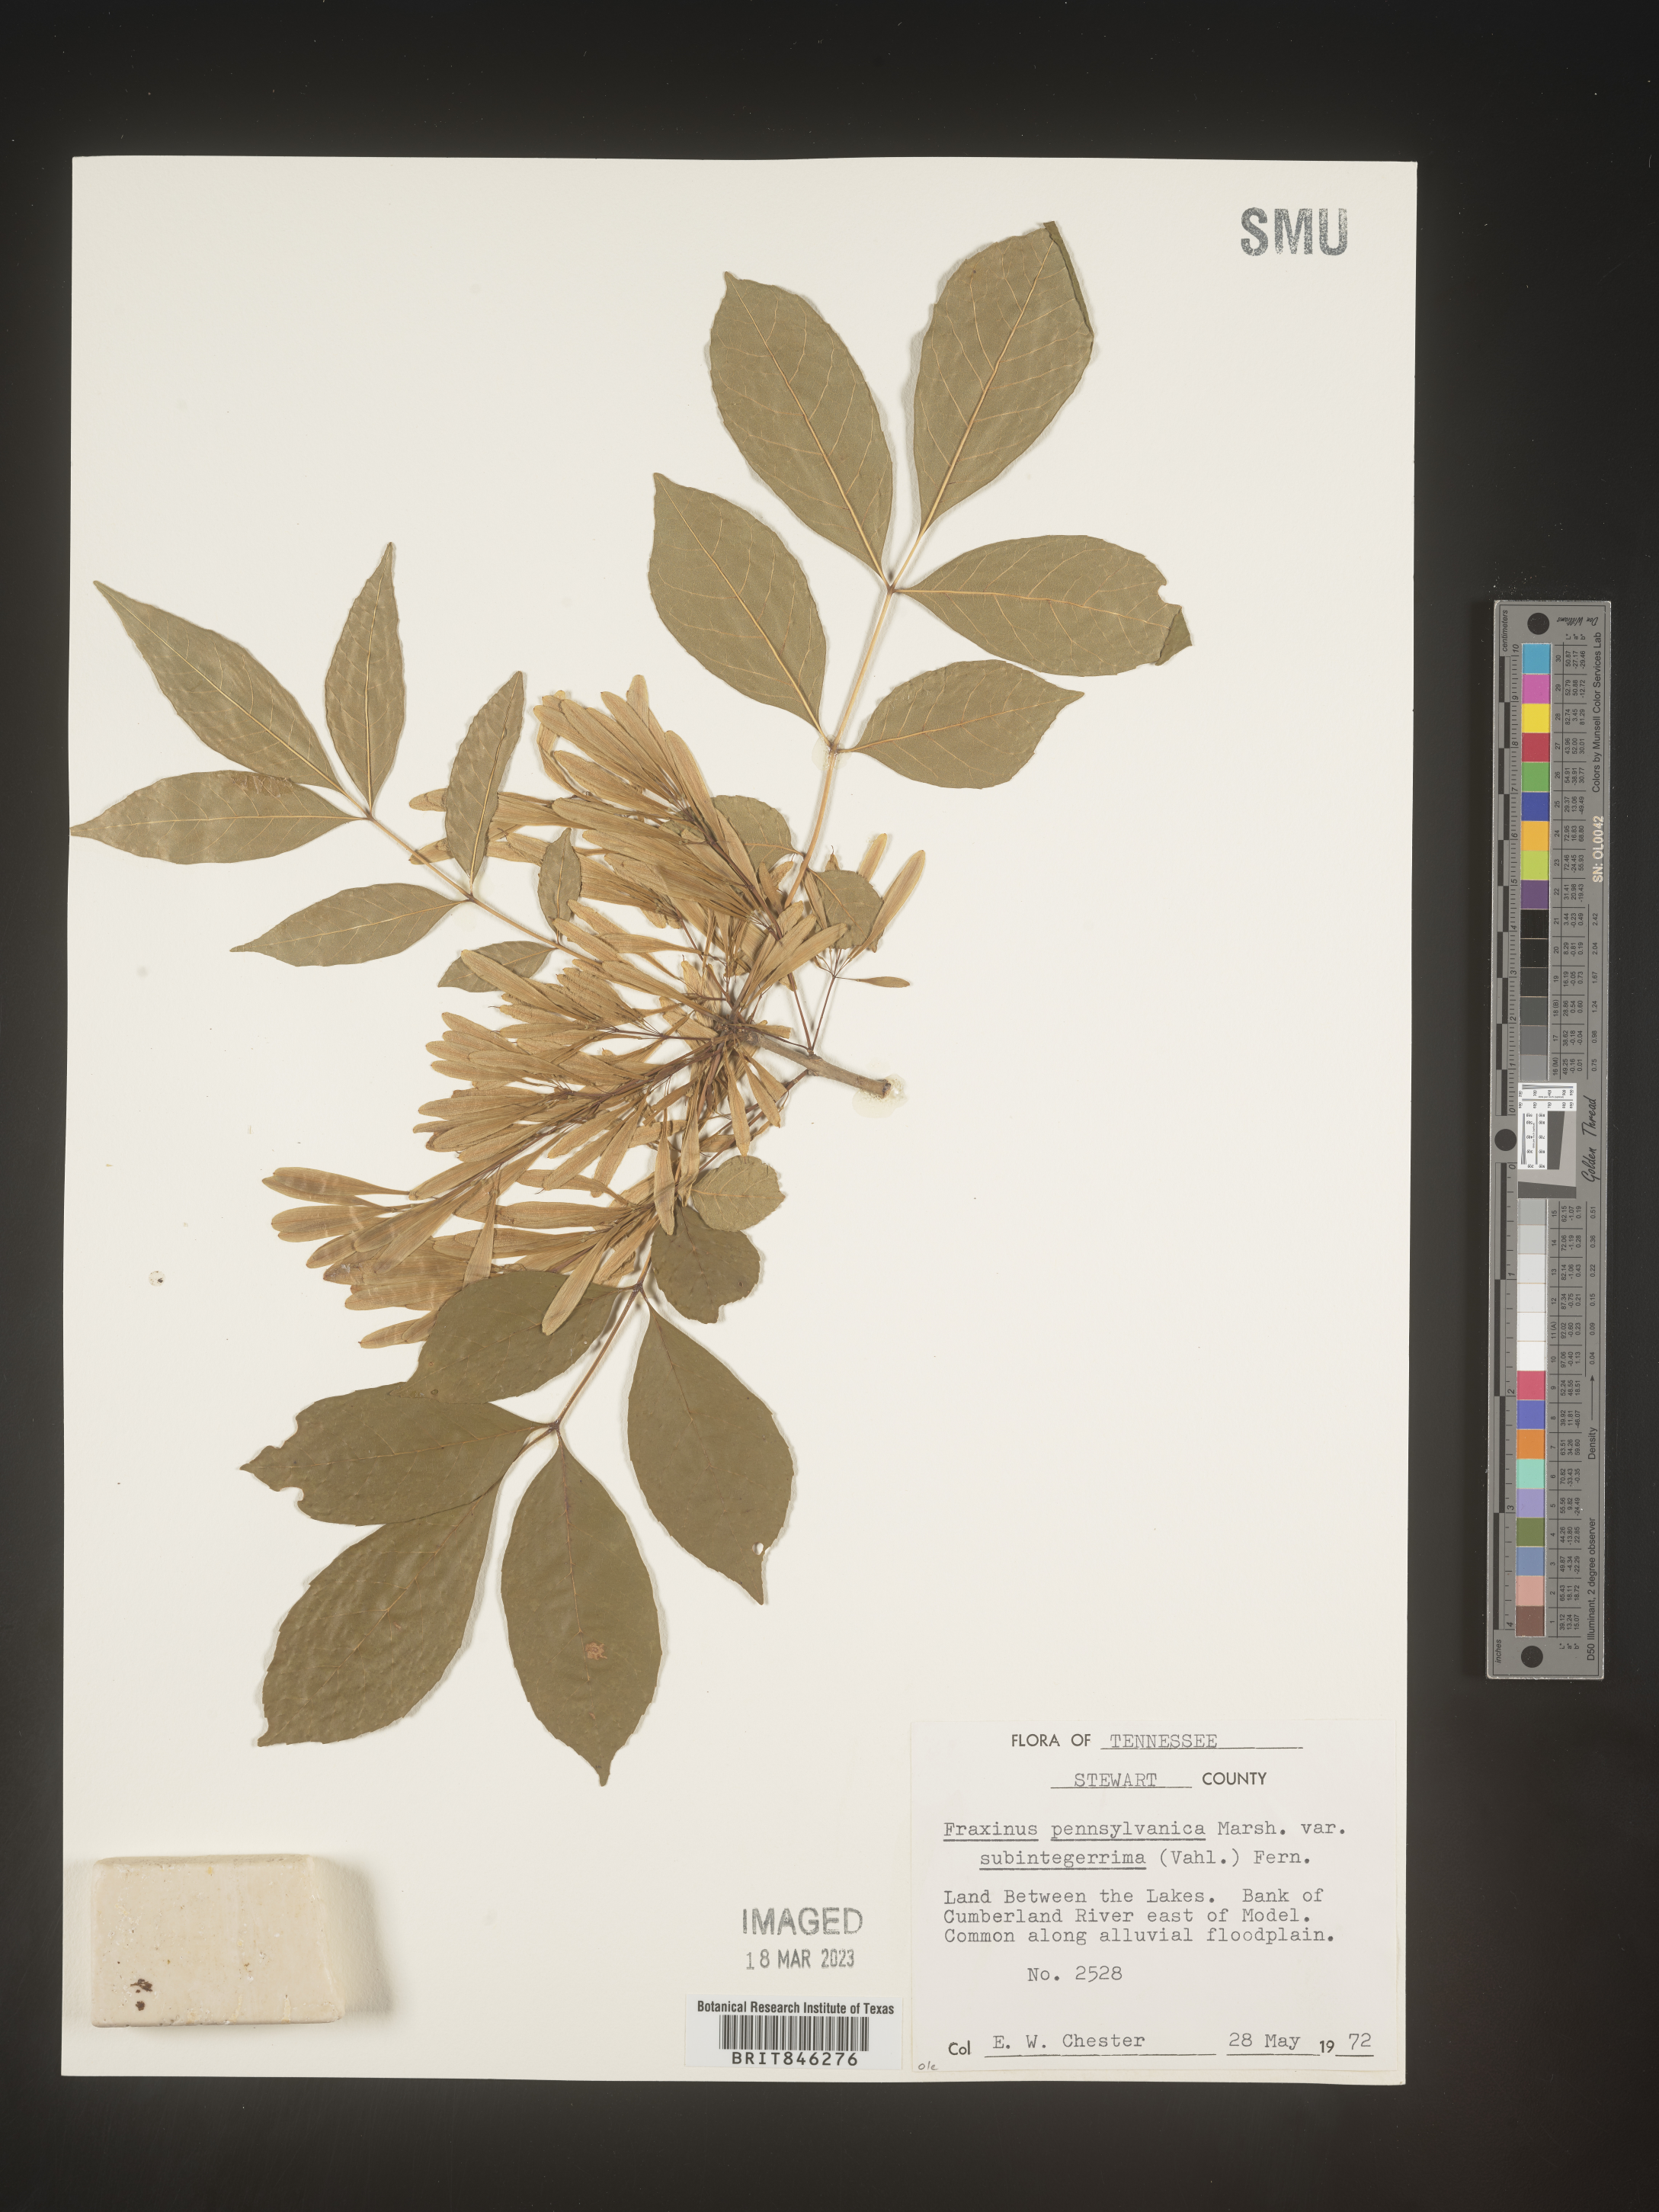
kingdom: Plantae
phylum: Tracheophyta
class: Magnoliopsida
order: Lamiales
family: Oleaceae
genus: Fraxinus
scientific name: Fraxinus pennsylvanica
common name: Green ash
